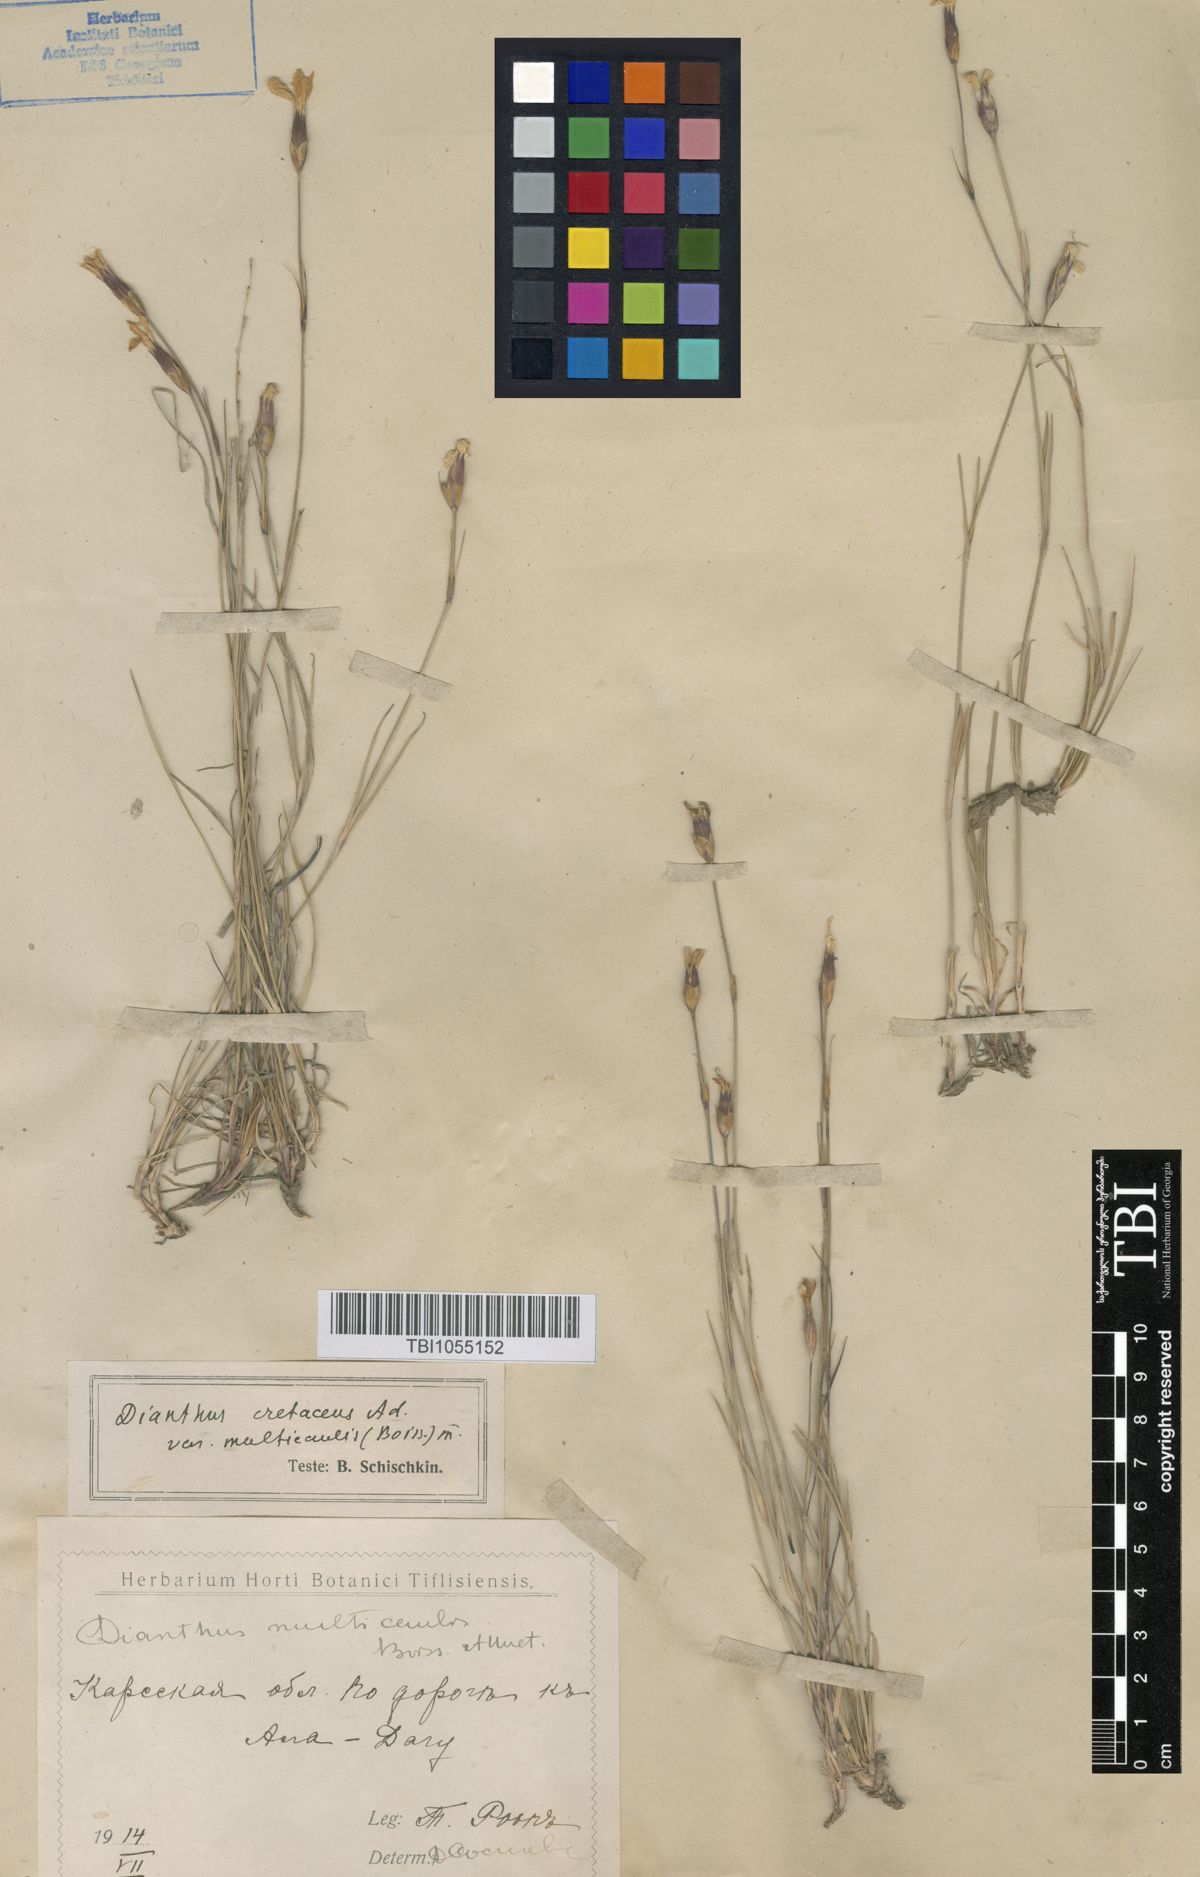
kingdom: Plantae
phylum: Tracheophyta
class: Magnoliopsida
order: Caryophyllales
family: Caryophyllaceae
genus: Dianthus
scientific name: Dianthus cretaceus
